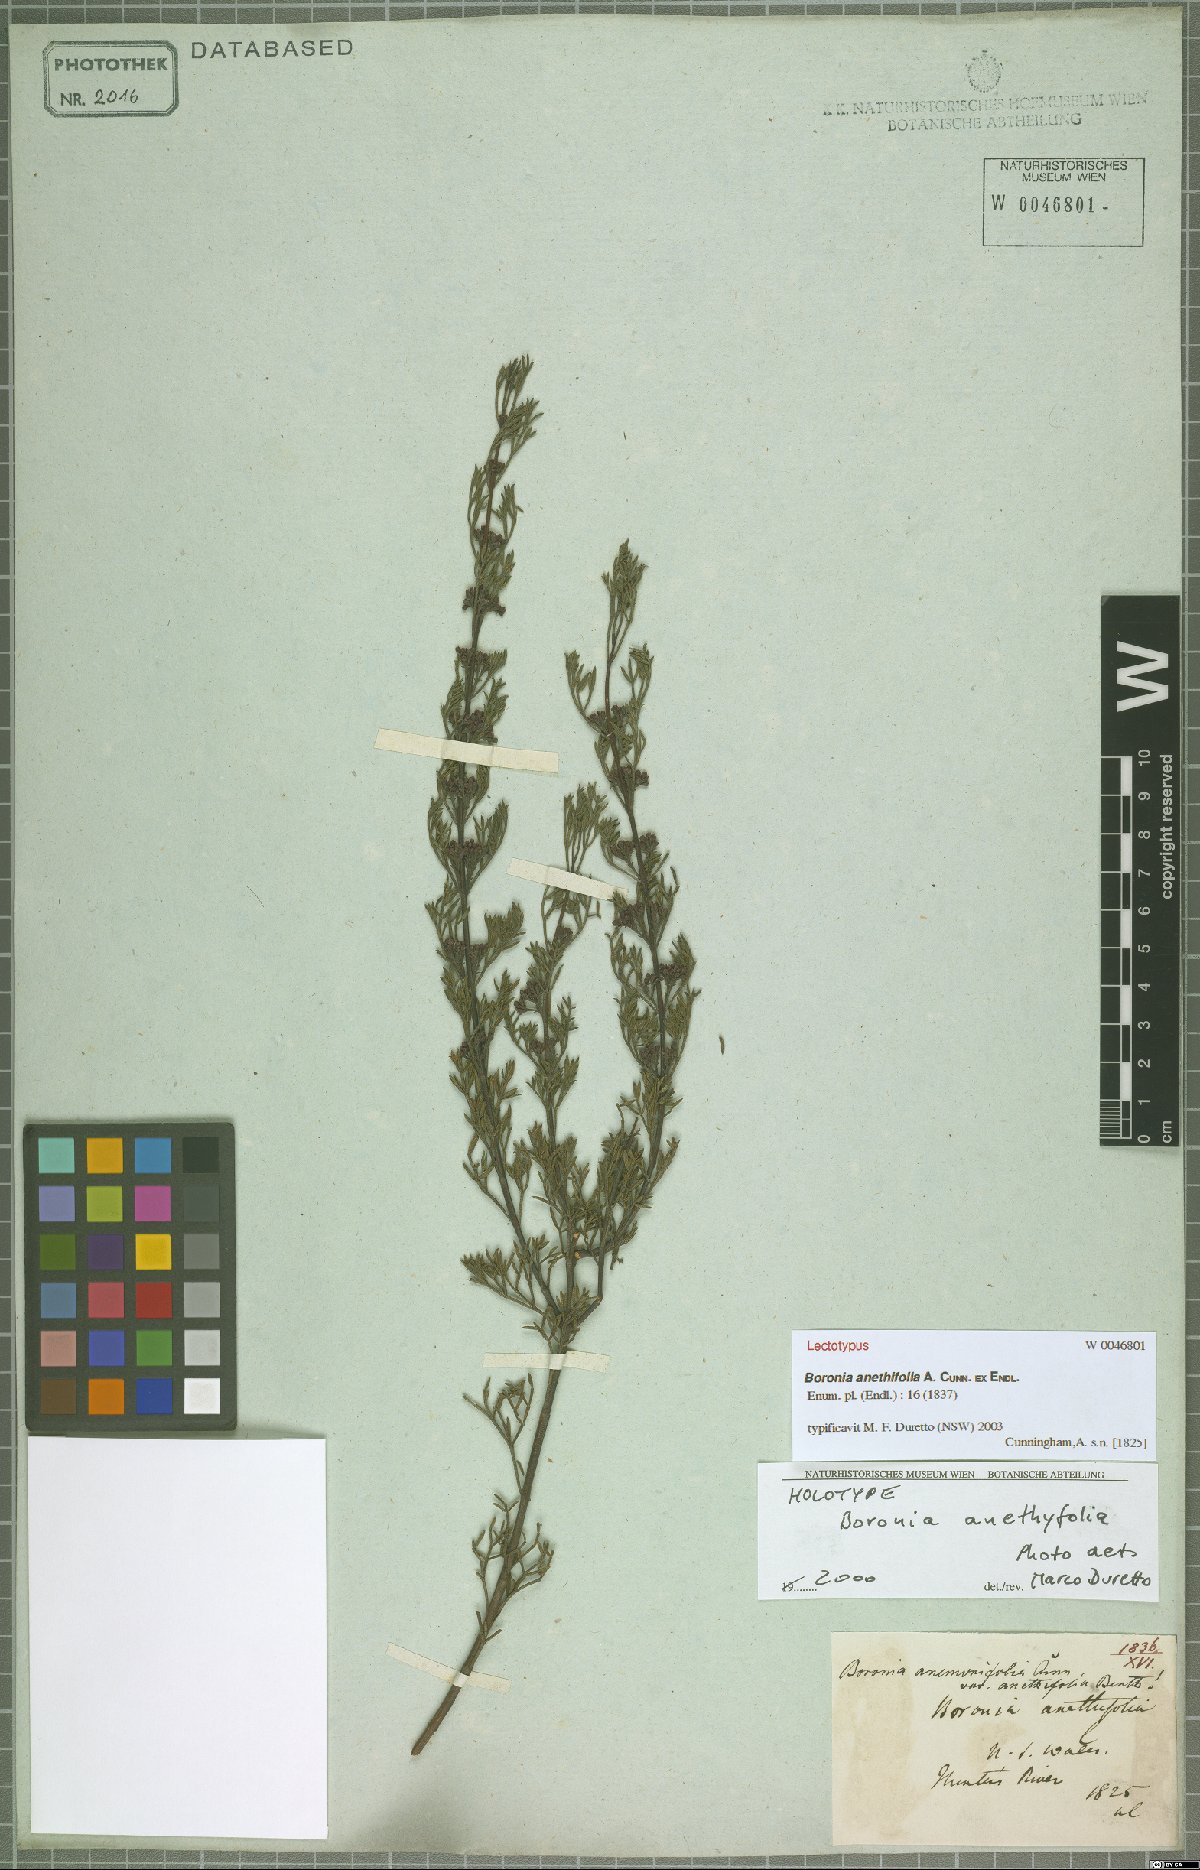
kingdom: Plantae
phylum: Tracheophyta
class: Magnoliopsida
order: Sapindales
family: Rutaceae
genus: Cyanothamnus
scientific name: Cyanothamnus quadrangulus
